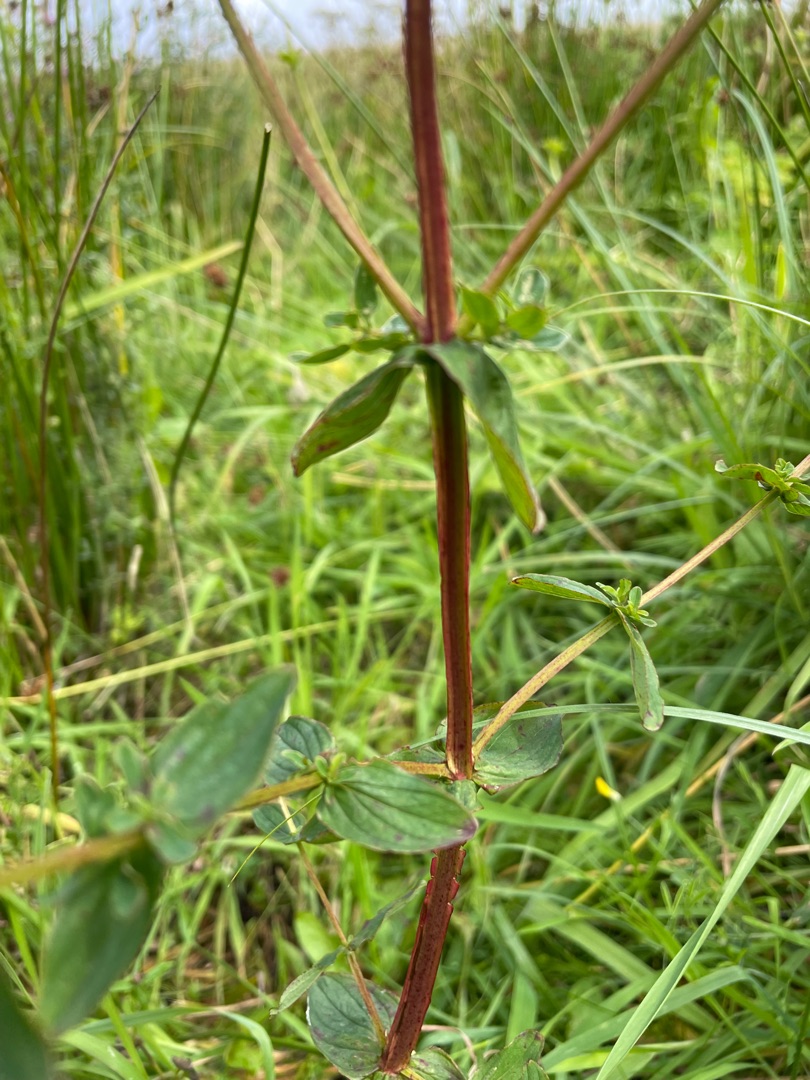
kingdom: Plantae
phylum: Tracheophyta
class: Magnoliopsida
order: Malpighiales
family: Hypericaceae
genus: Hypericum
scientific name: Hypericum tetrapterum
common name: Vinget perikon
